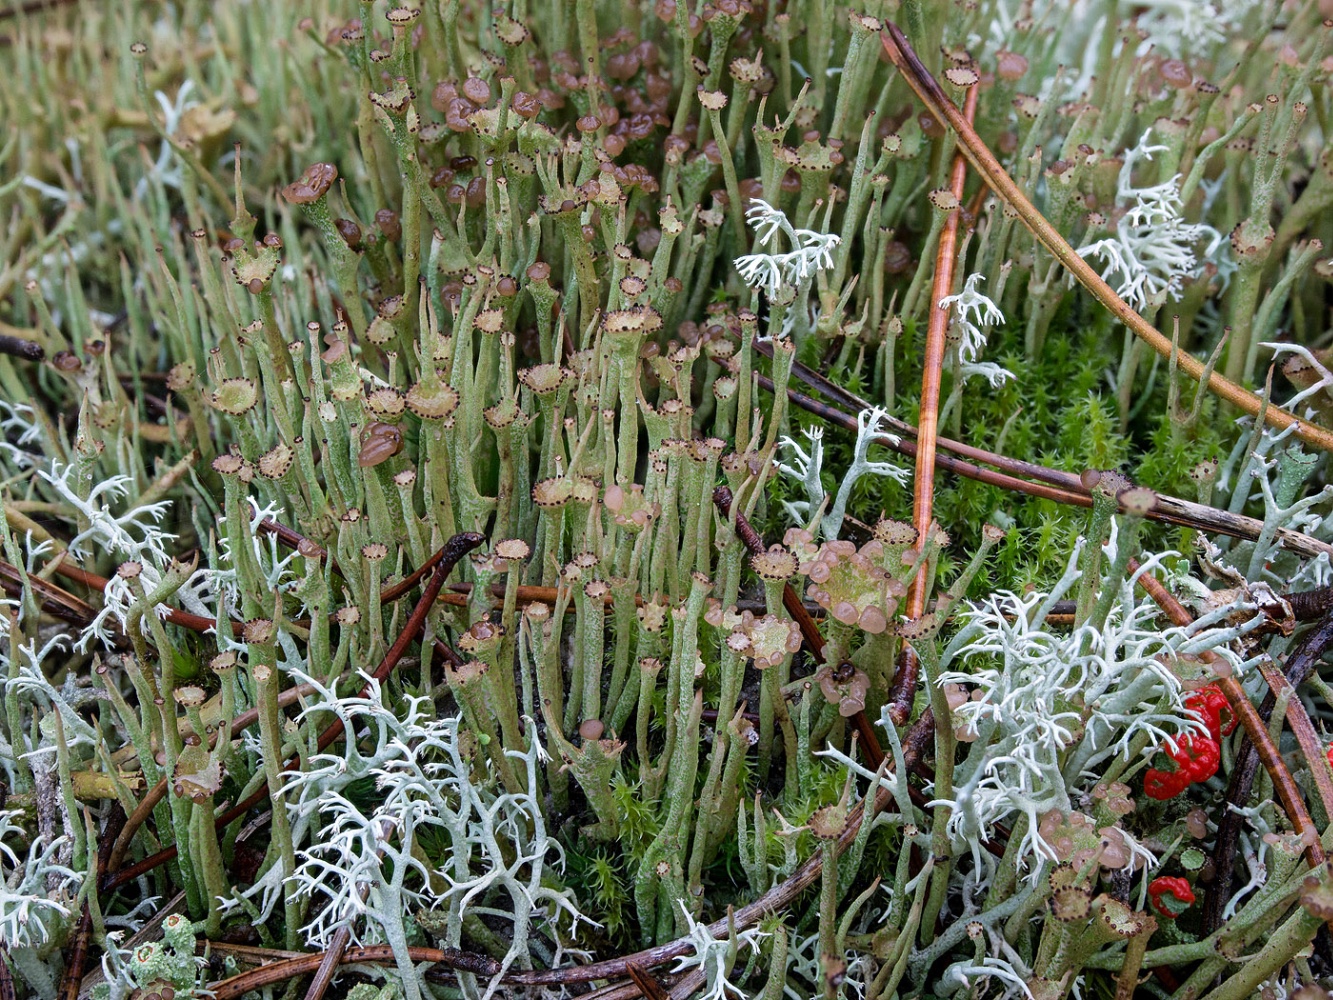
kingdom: Fungi
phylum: Ascomycota
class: Lecanoromycetes
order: Lecanorales
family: Cladoniaceae
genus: Cladonia
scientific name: Cladonia gracilis
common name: slank bægerlav
